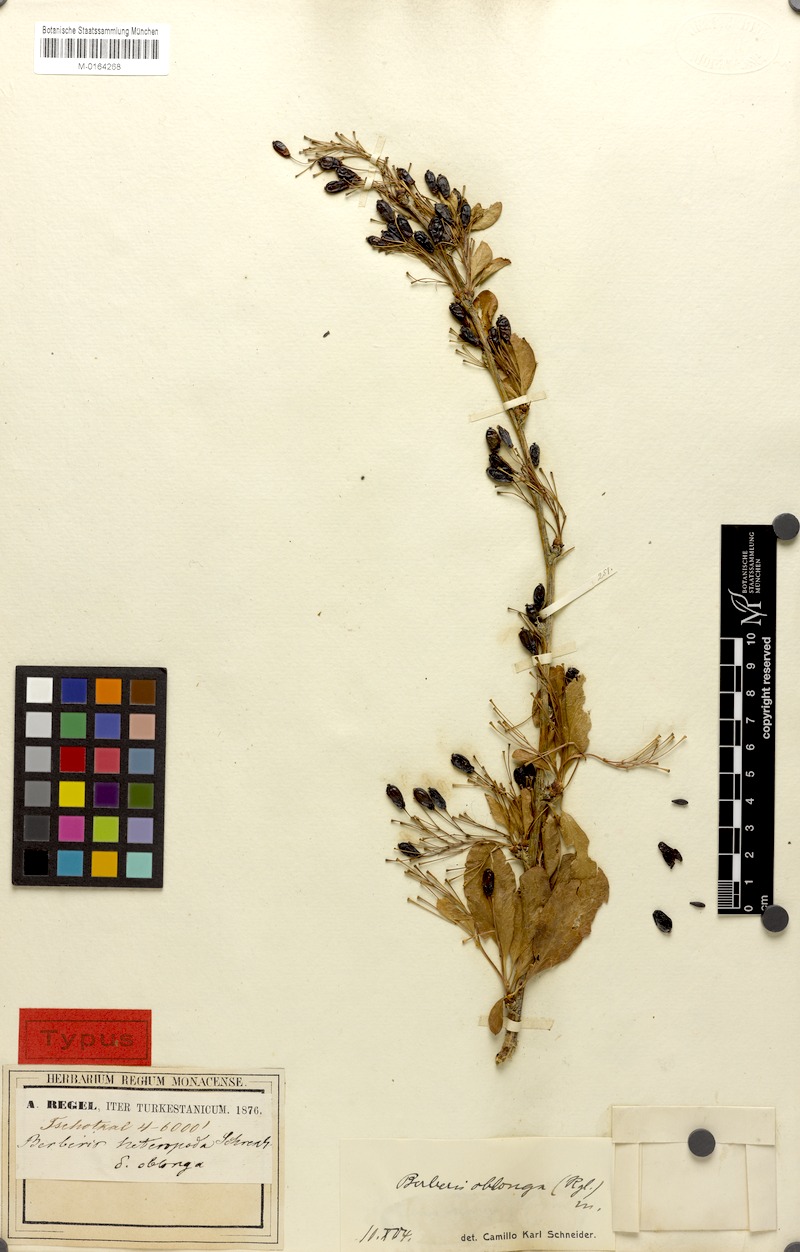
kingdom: Plantae
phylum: Tracheophyta
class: Magnoliopsida
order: Ranunculales
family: Berberidaceae
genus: Berberis
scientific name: Berberis oblonga
